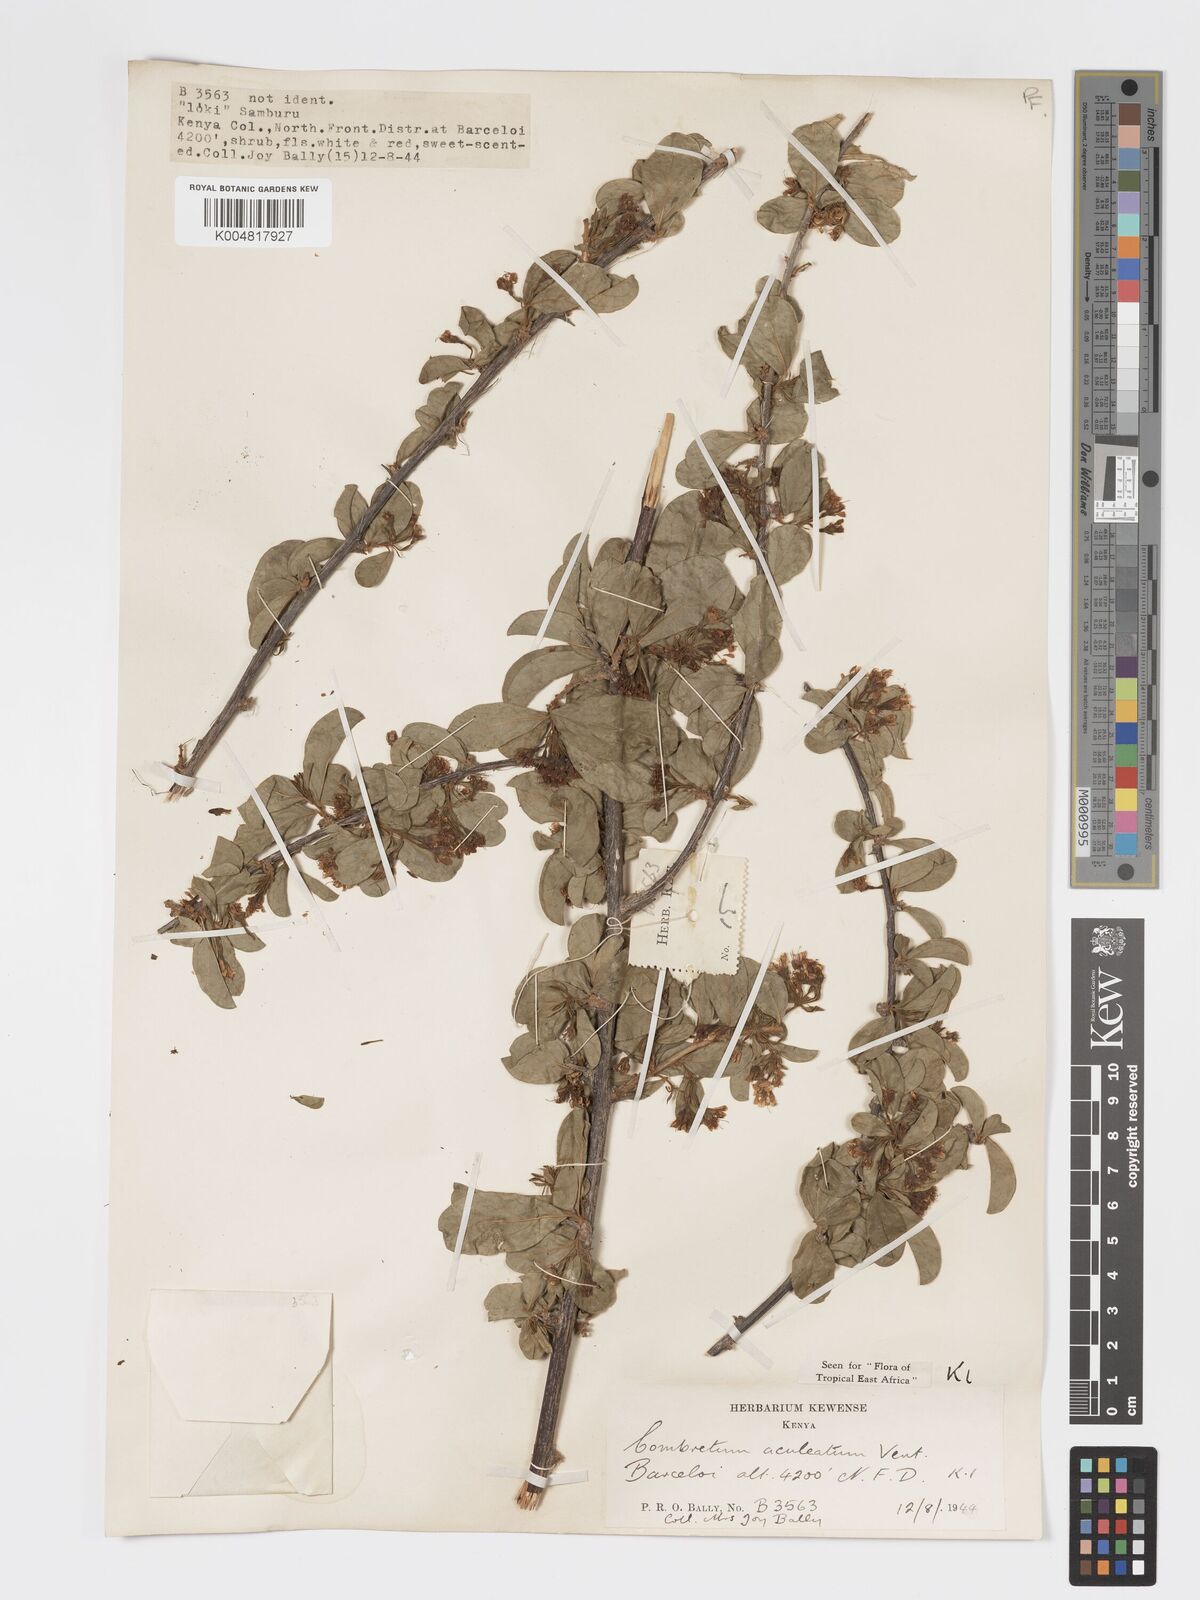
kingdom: Plantae
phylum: Tracheophyta
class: Magnoliopsida
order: Myrtales
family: Combretaceae
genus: Combretum
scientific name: Combretum aculeatum
